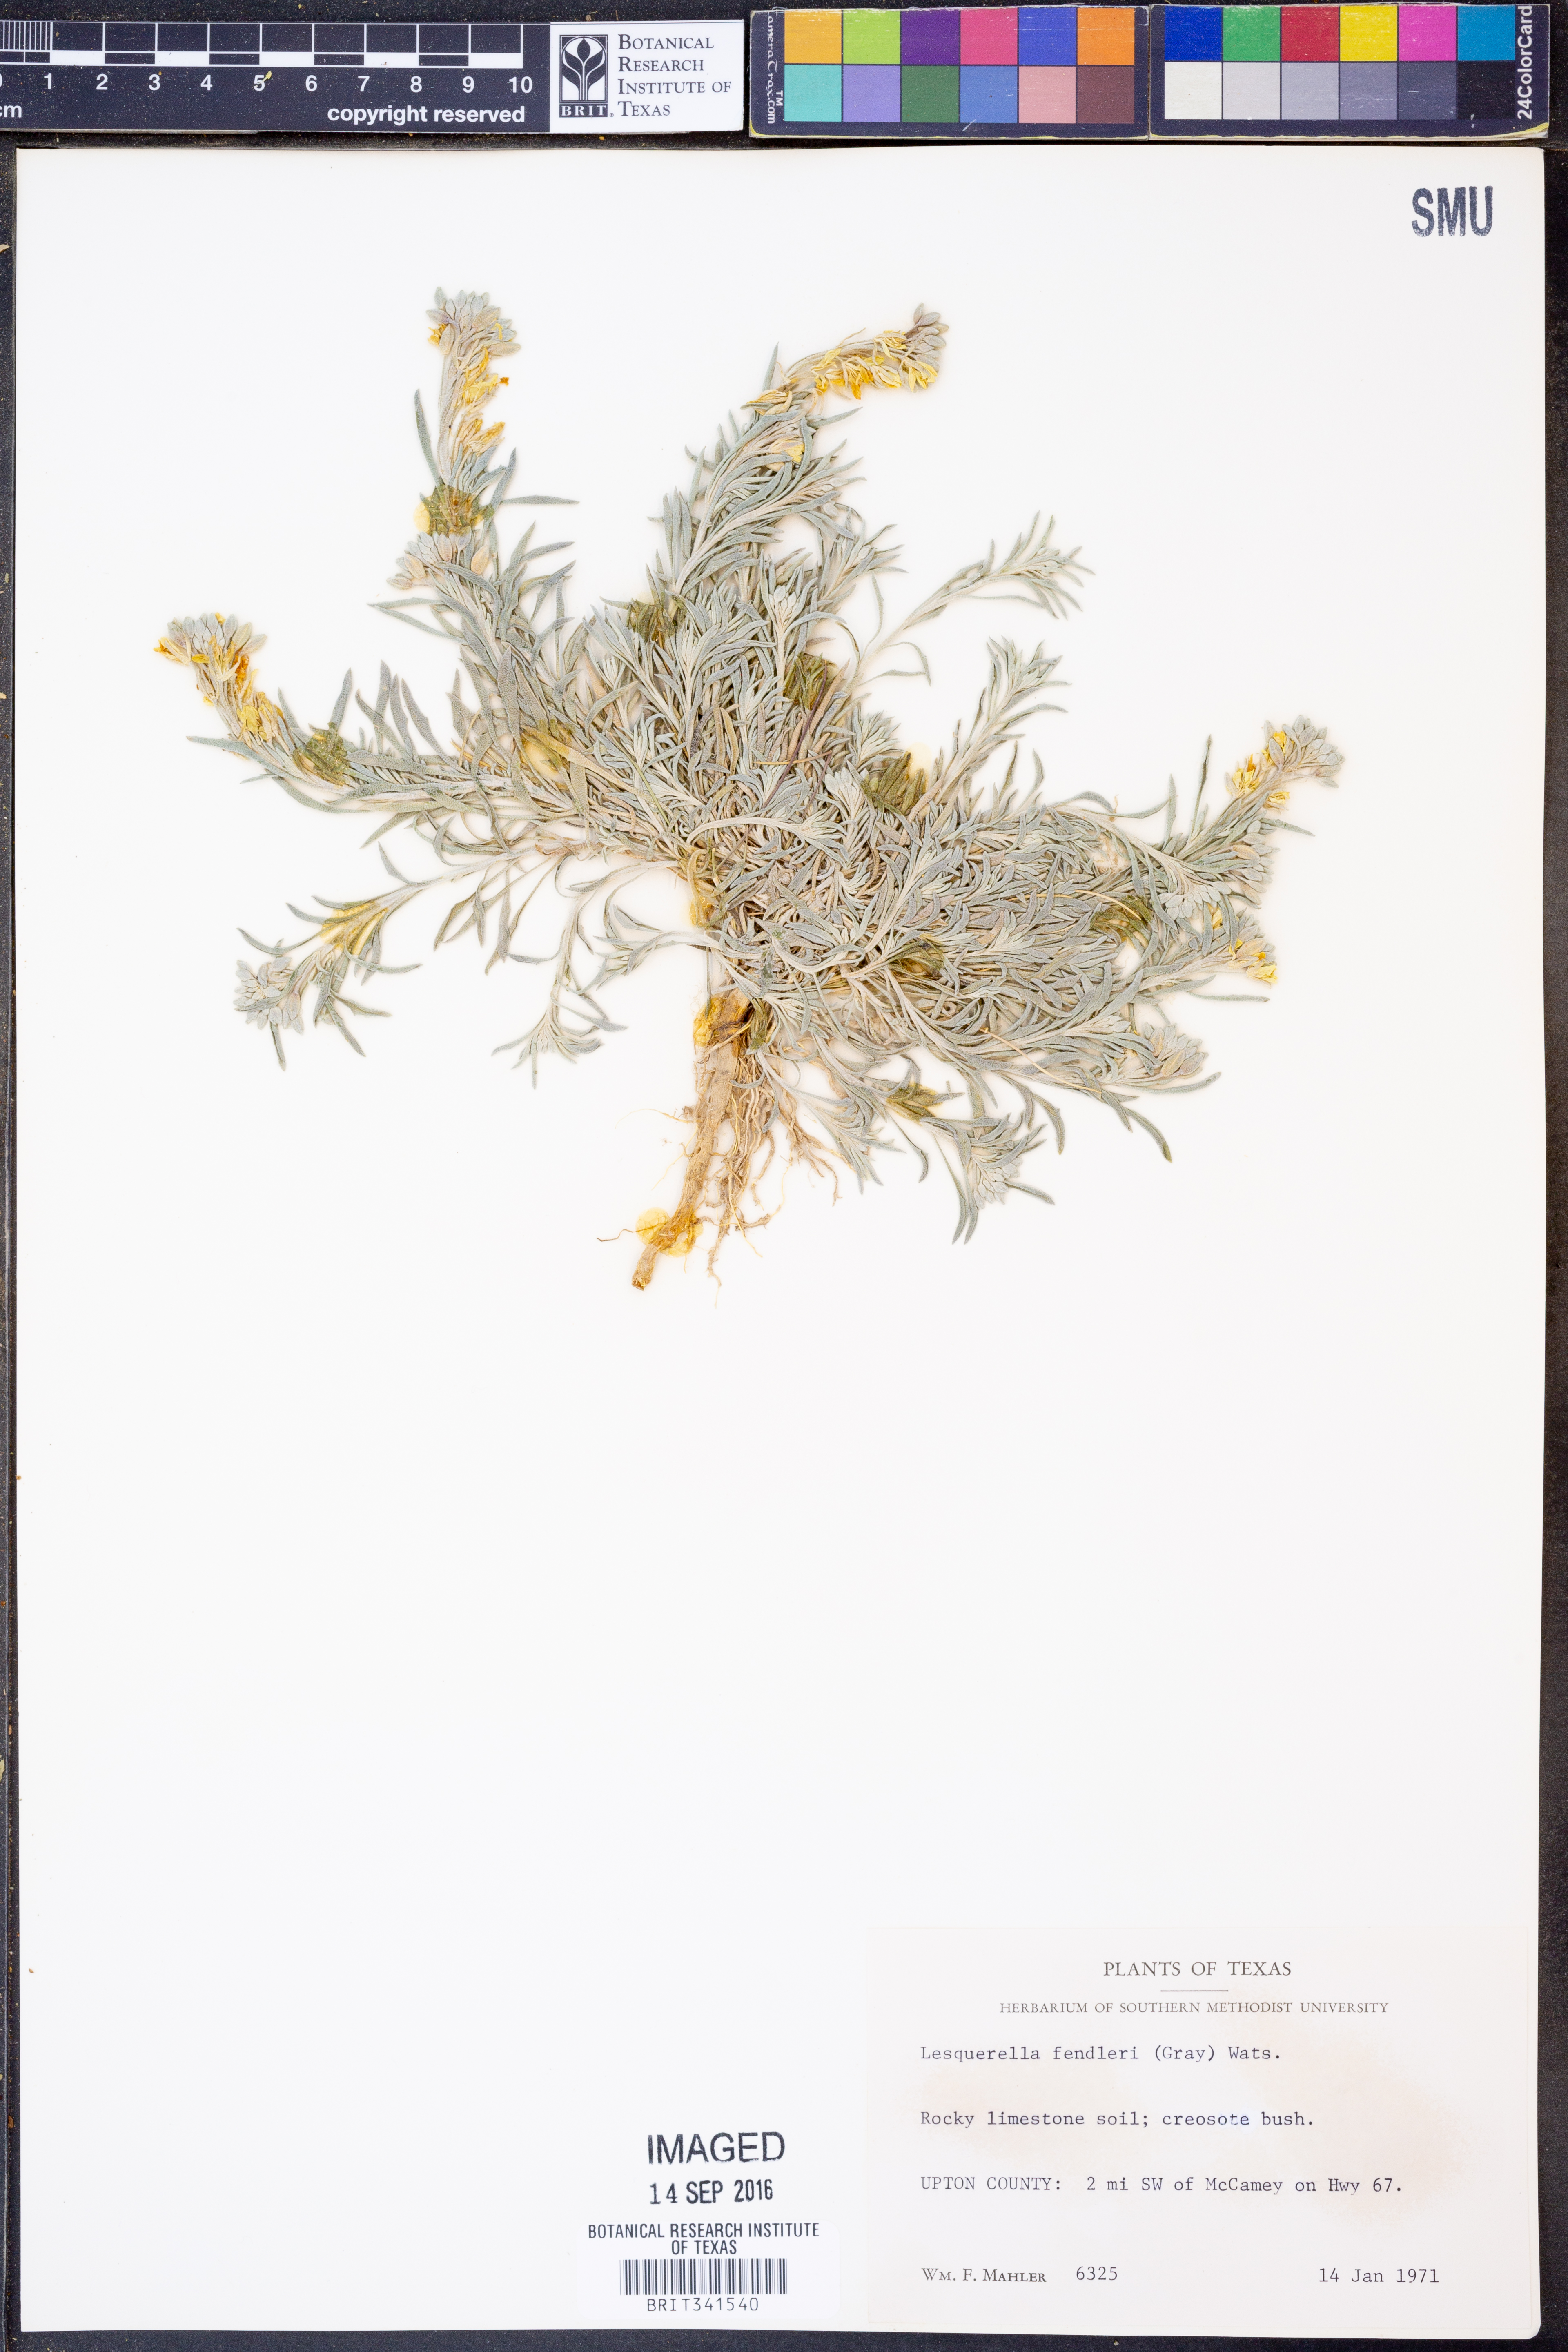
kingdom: Plantae
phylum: Tracheophyta
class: Magnoliopsida
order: Brassicales
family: Brassicaceae
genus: Physaria
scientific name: Physaria fendleri
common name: Fendler's bladderpod
